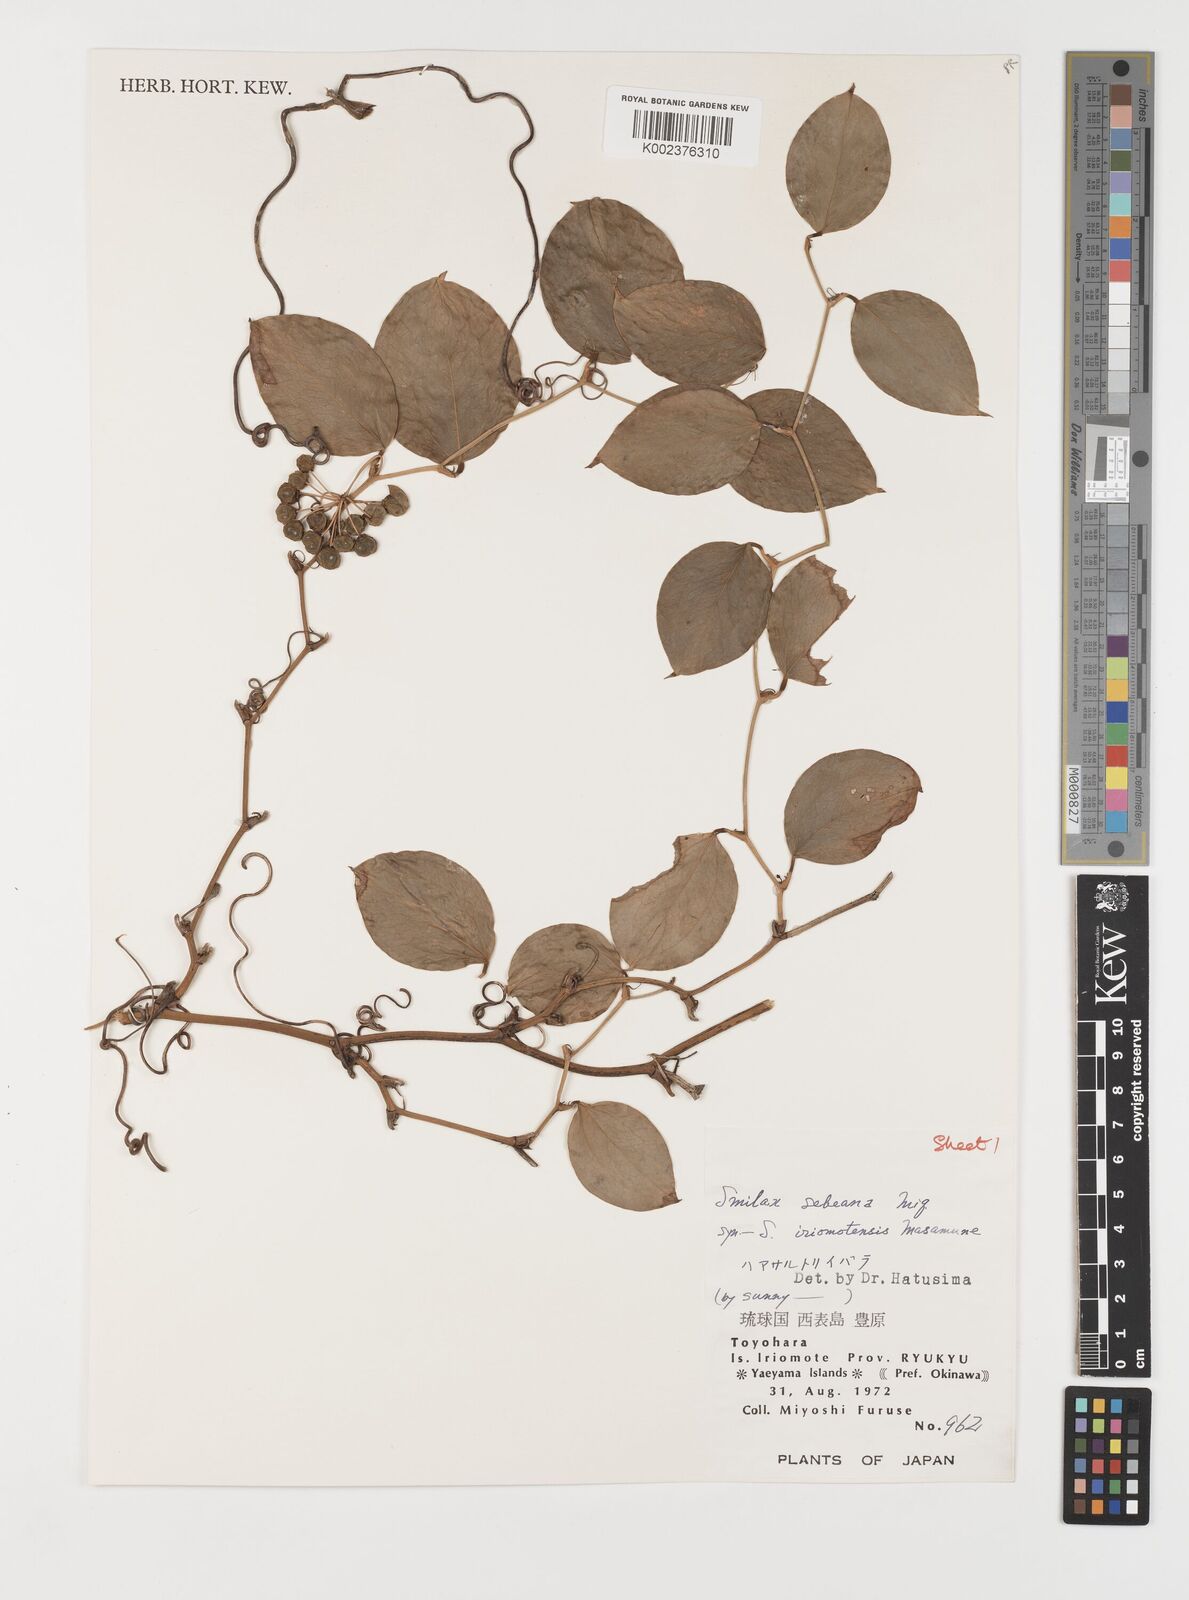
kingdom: Plantae
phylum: Tracheophyta
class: Liliopsida
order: Liliales
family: Smilacaceae
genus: Smilax
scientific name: Smilax sebeana
